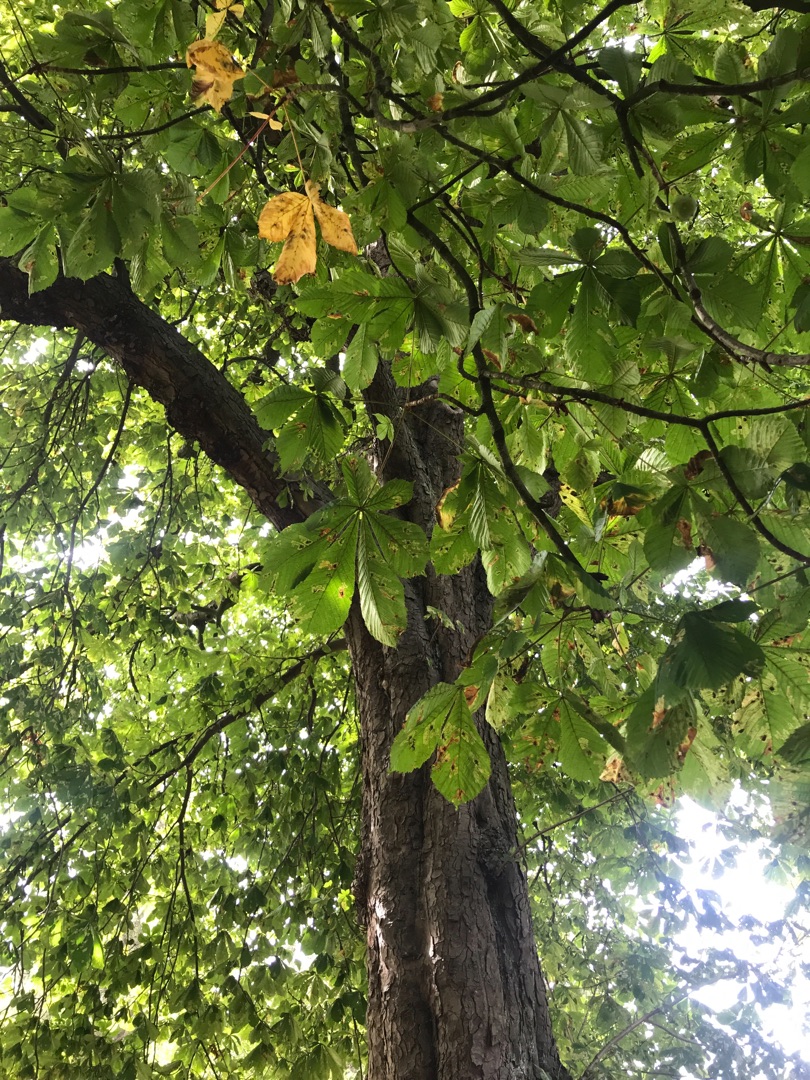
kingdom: Plantae
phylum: Tracheophyta
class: Magnoliopsida
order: Sapindales
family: Sapindaceae
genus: Aesculus
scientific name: Aesculus hippocastanum
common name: Hestekastanie
